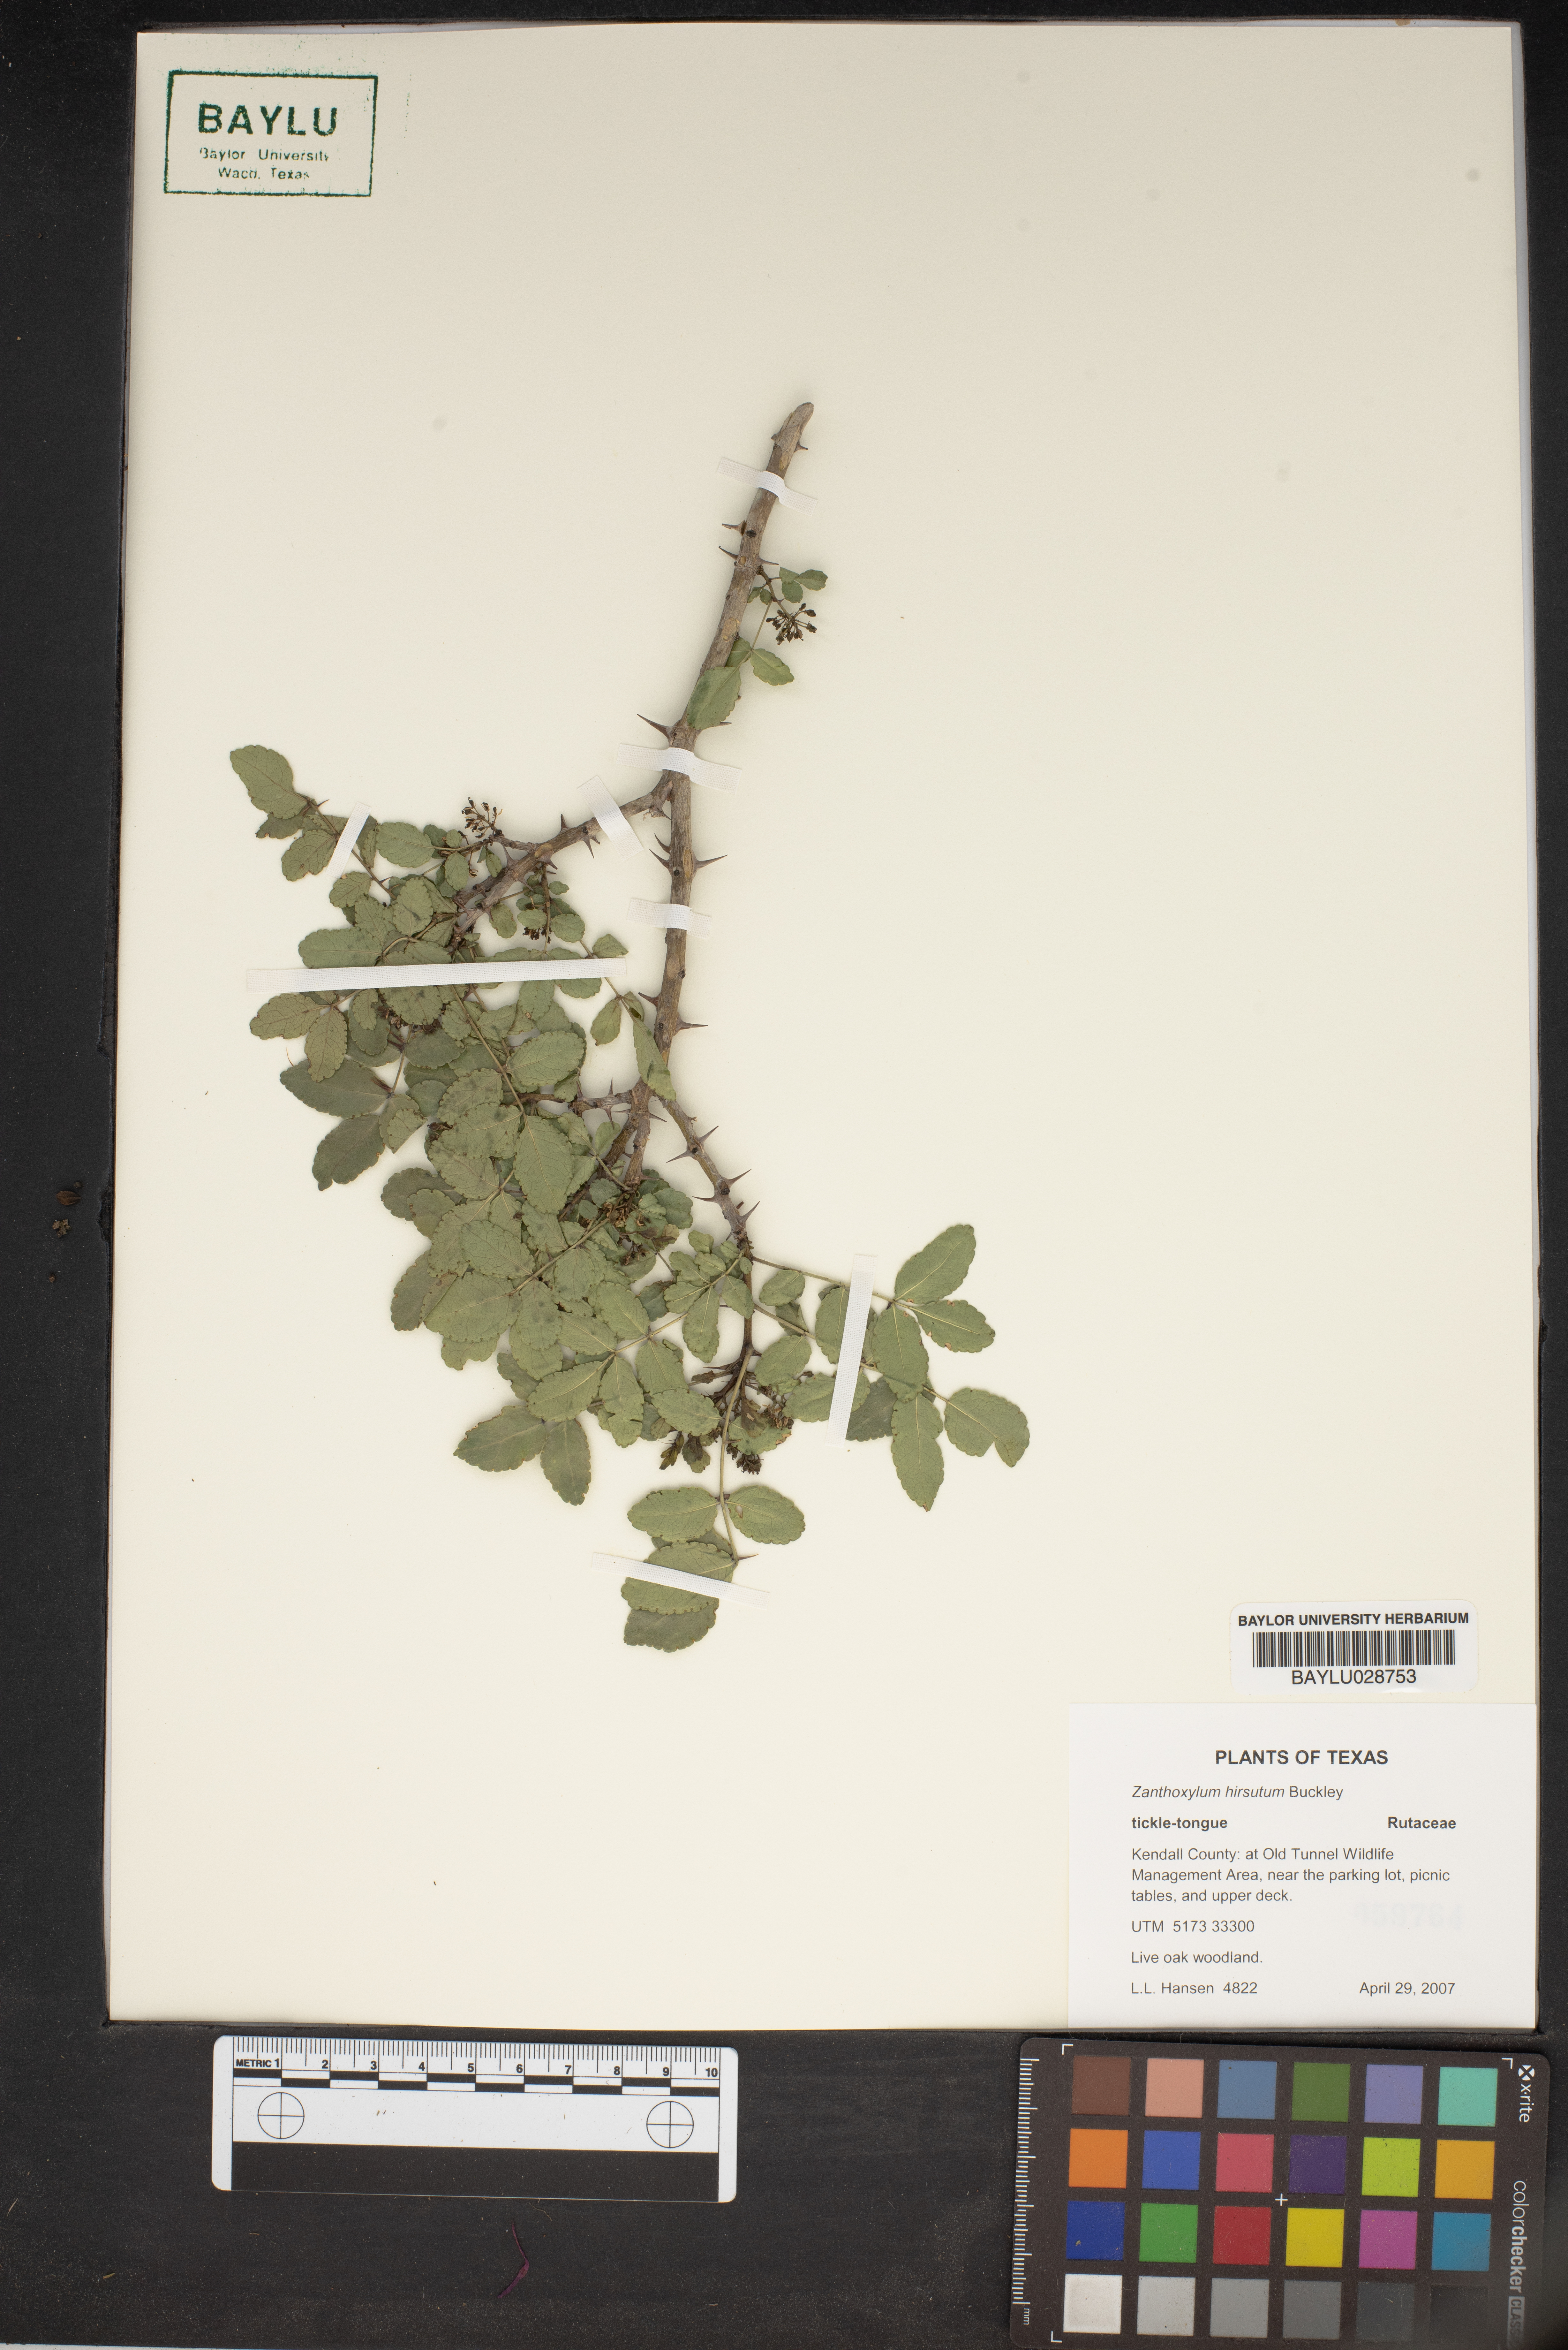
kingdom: Plantae
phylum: Tracheophyta
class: Magnoliopsida
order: Sapindales
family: Rutaceae
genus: Zanthoxylum
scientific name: Zanthoxylum clava-herculis
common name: Hercules'-club
